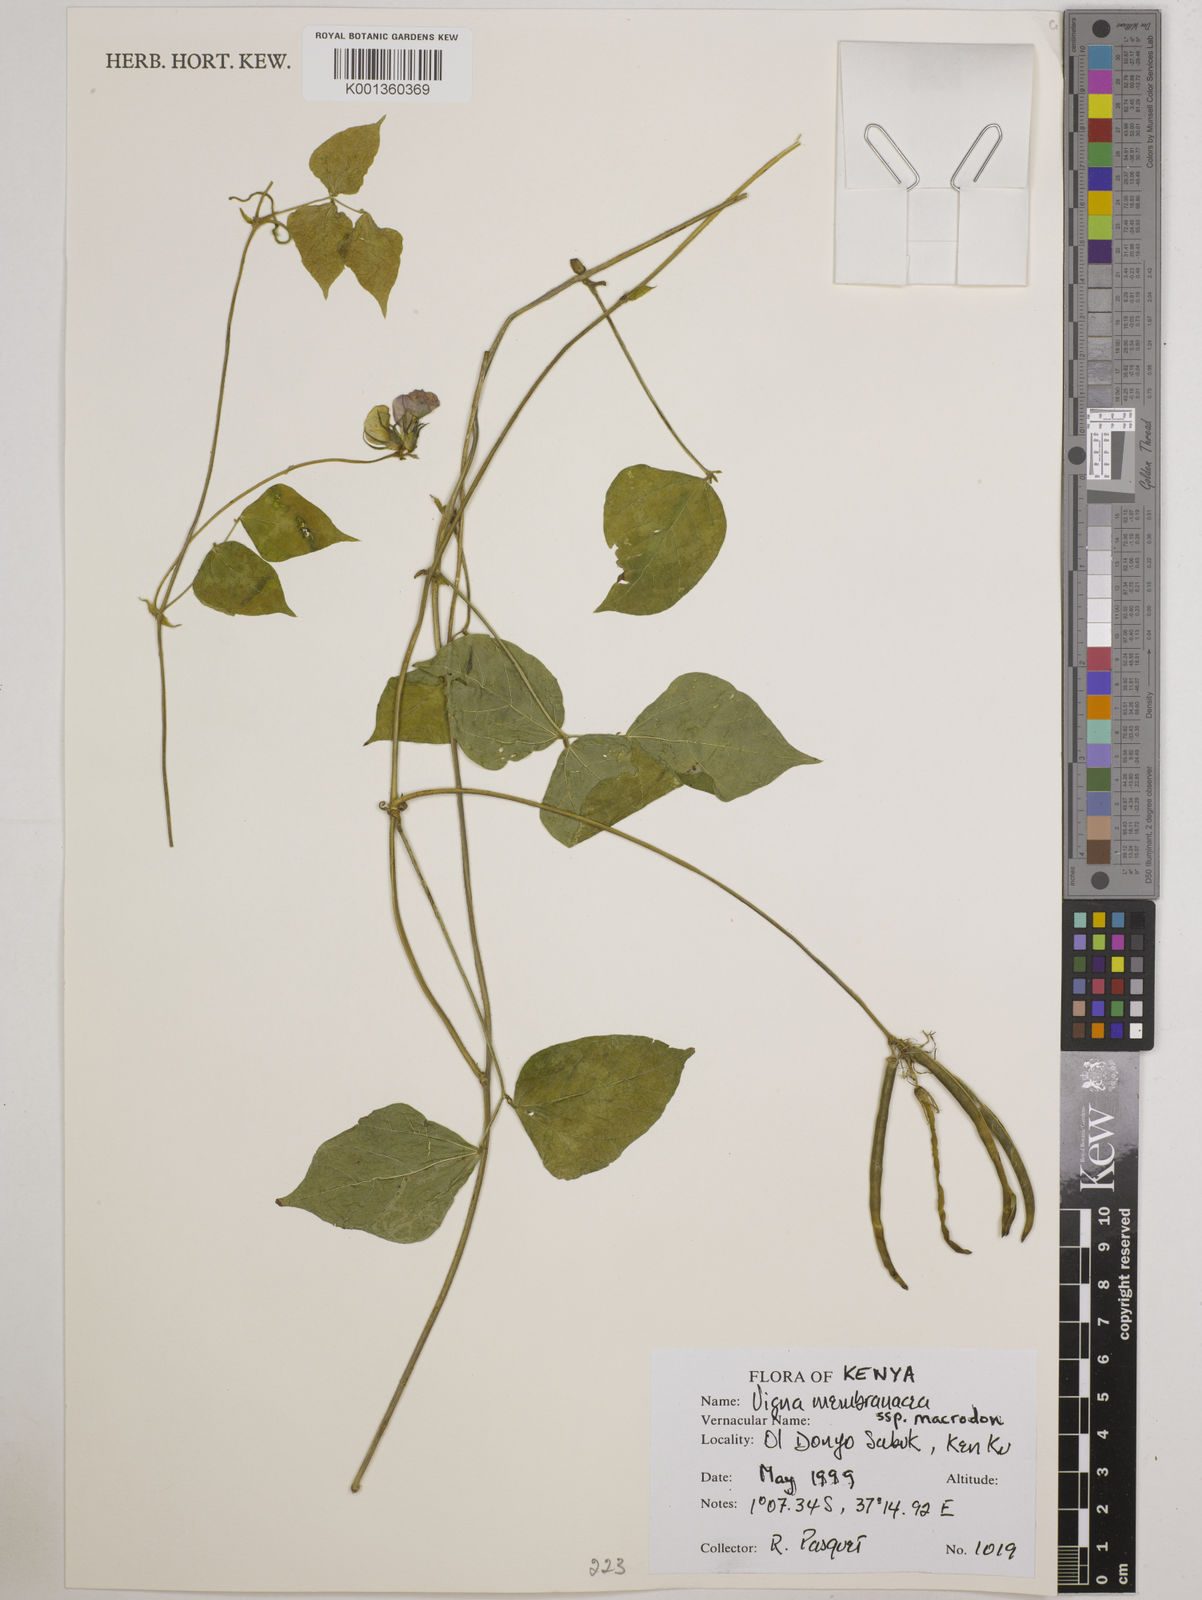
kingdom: Plantae
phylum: Tracheophyta
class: Magnoliopsida
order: Fabales
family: Fabaceae
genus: Vigna
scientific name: Vigna
